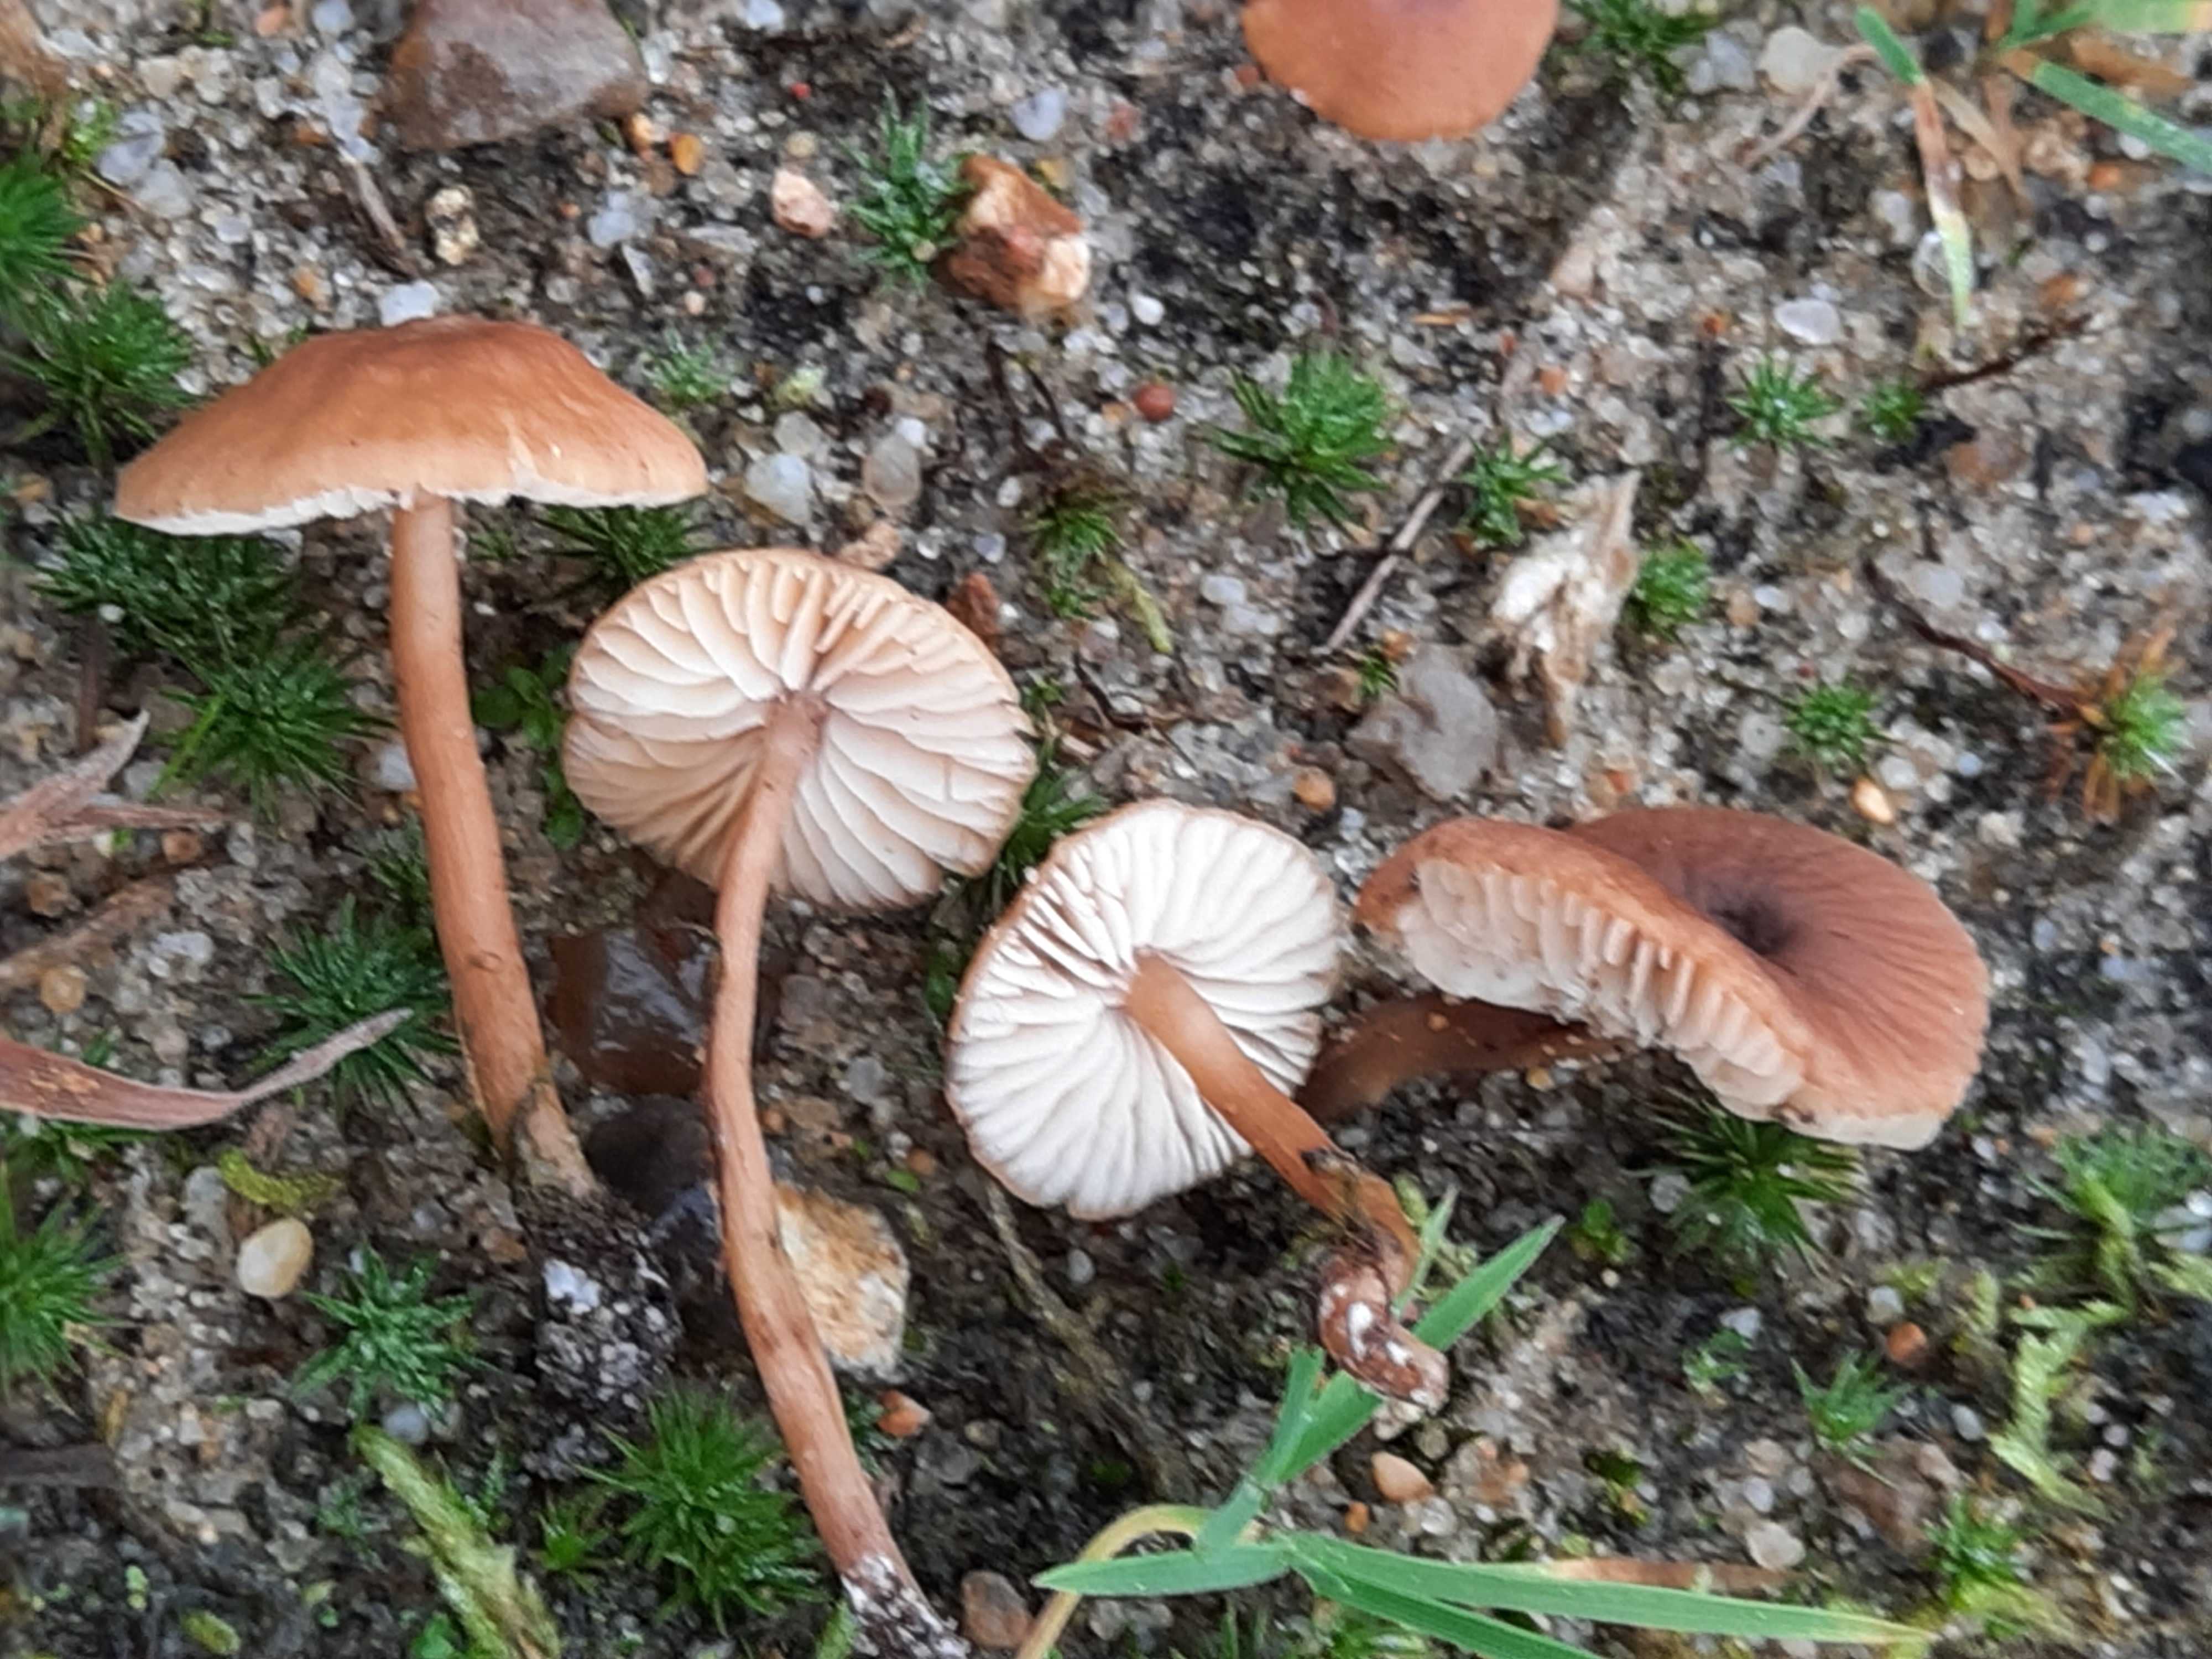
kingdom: Fungi
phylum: Basidiomycota
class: Agaricomycetes
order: Agaricales
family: Callistosporiaceae
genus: Pseudolaccaria
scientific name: Pseudolaccaria pachyphylla
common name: hvælvet tykblad
